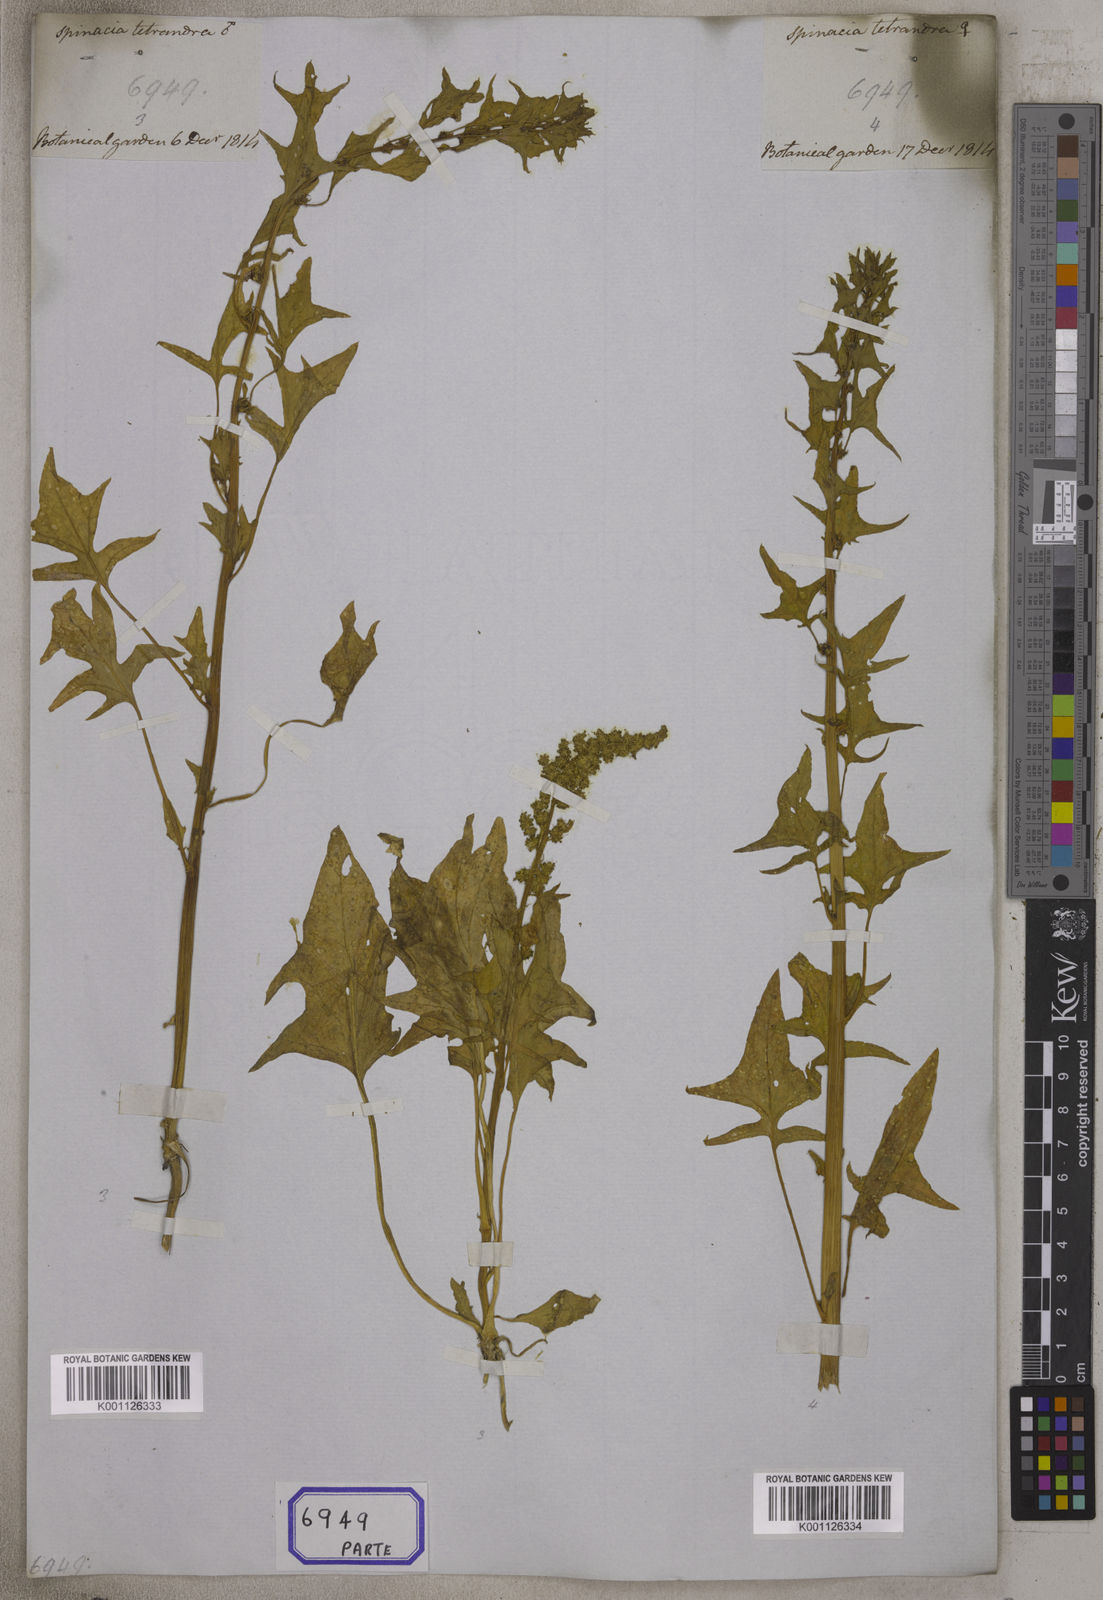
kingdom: Plantae
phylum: Tracheophyta
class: Magnoliopsida
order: Caryophyllales
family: Amaranthaceae
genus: Spinacia
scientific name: Spinacia tetrandra
